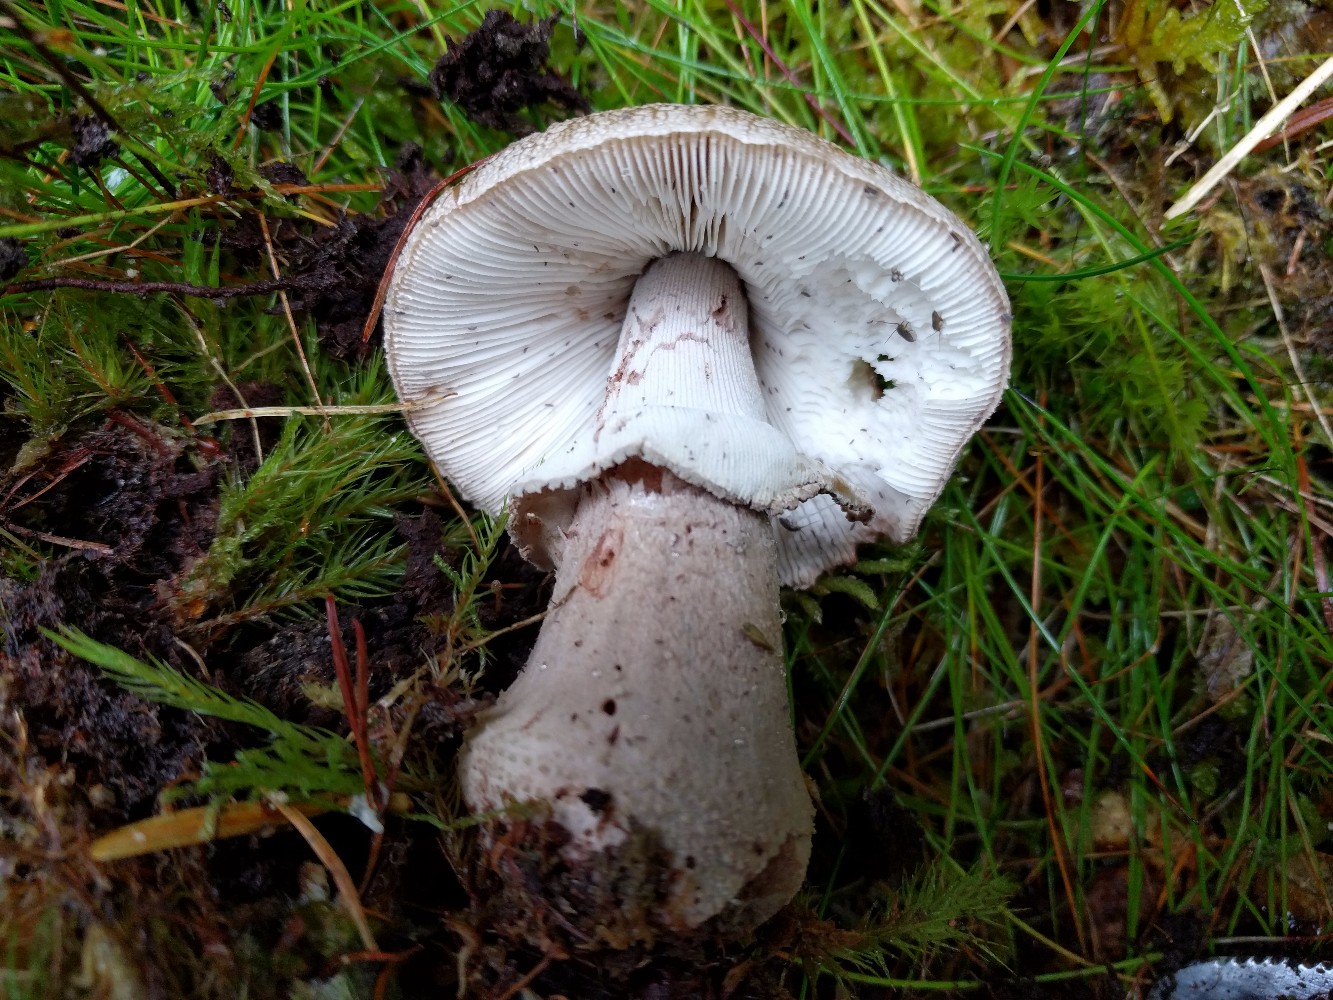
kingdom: Fungi
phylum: Basidiomycota
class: Agaricomycetes
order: Agaricales
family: Amanitaceae
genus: Amanita
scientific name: Amanita rubescens
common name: rødmende fluesvamp
